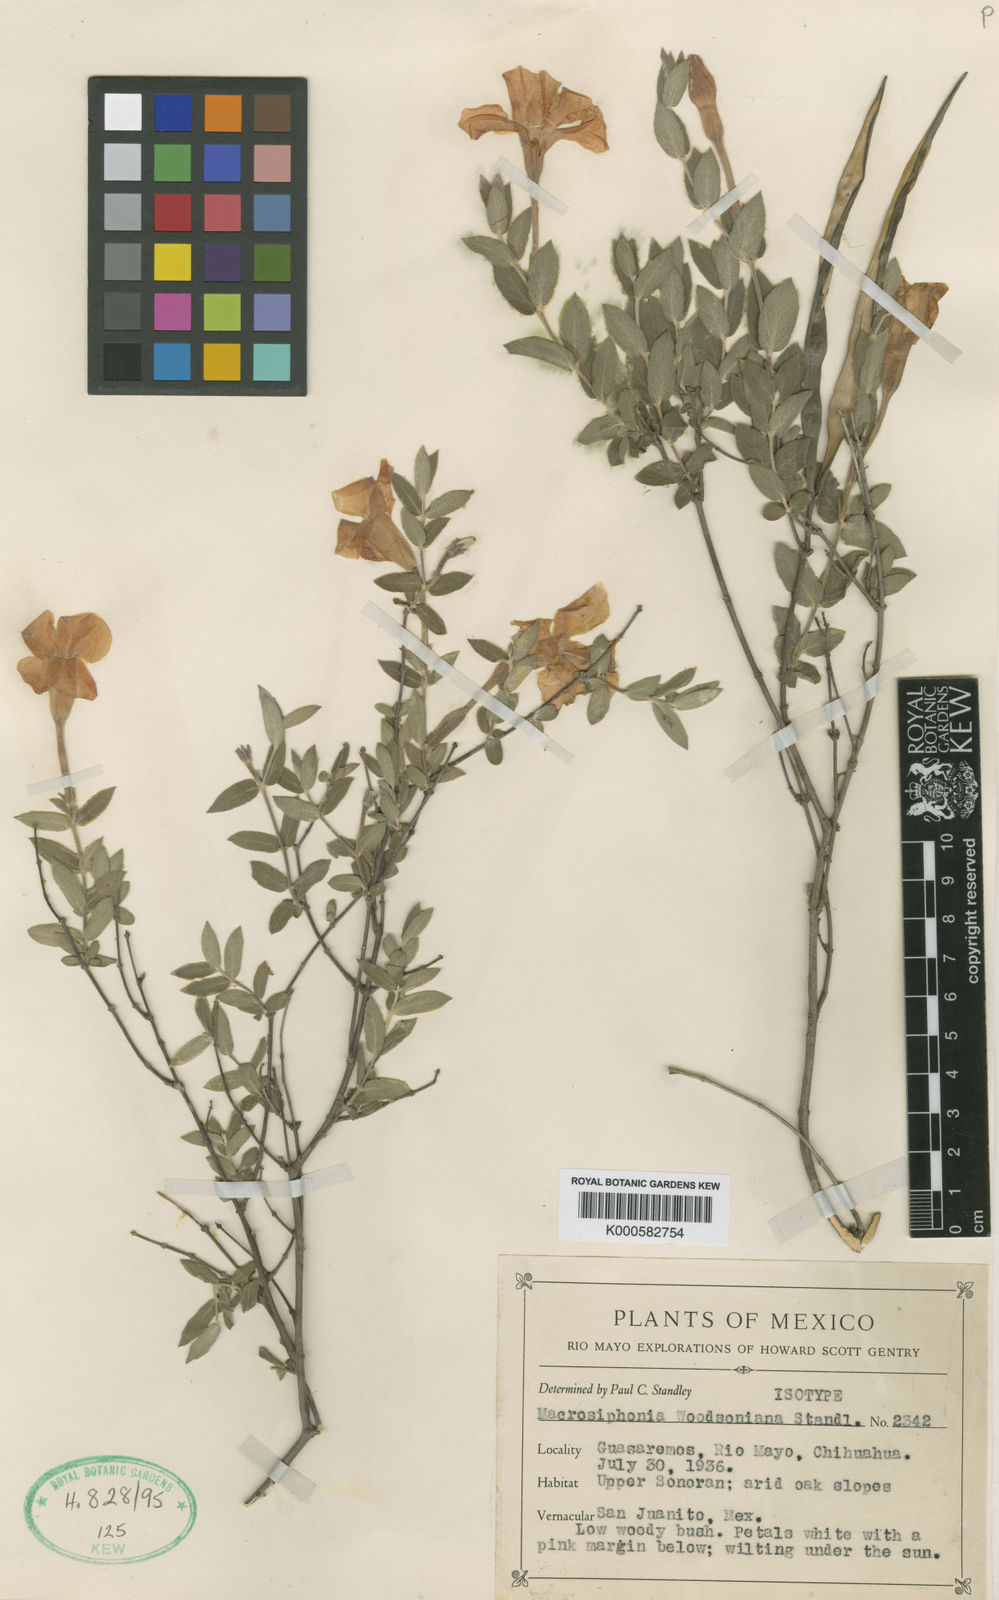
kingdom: Plantae
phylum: Tracheophyta
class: Magnoliopsida
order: Gentianales
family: Apocynaceae
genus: Mandevilla
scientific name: Mandevilla brachysiphon
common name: Huachuca mountain rocktrumpet
